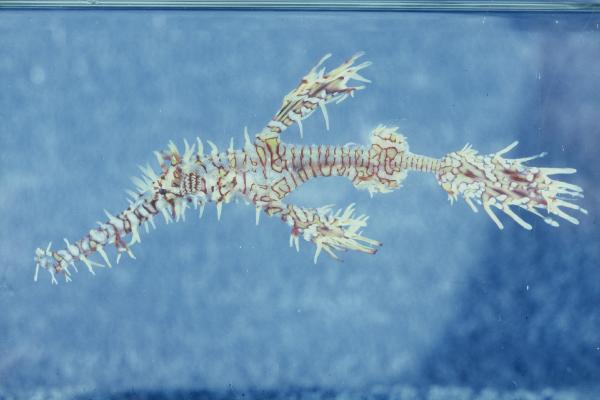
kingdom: Animalia
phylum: Chordata
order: Syngnathiformes
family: Solenostomidae
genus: Solenostomus
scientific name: Solenostomus cyanopterus
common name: Blue-finned ghost pipefish
